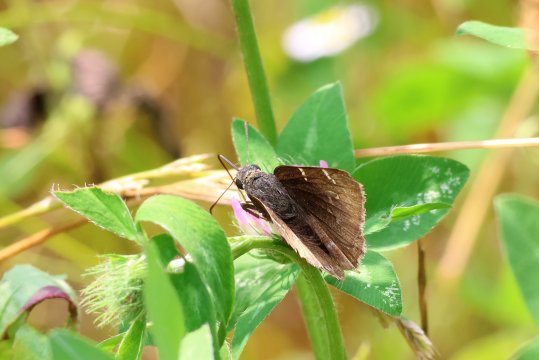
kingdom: Animalia
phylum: Arthropoda
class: Insecta
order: Lepidoptera
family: Hesperiidae
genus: Autochton
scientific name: Autochton
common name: Northern Cloudywing
